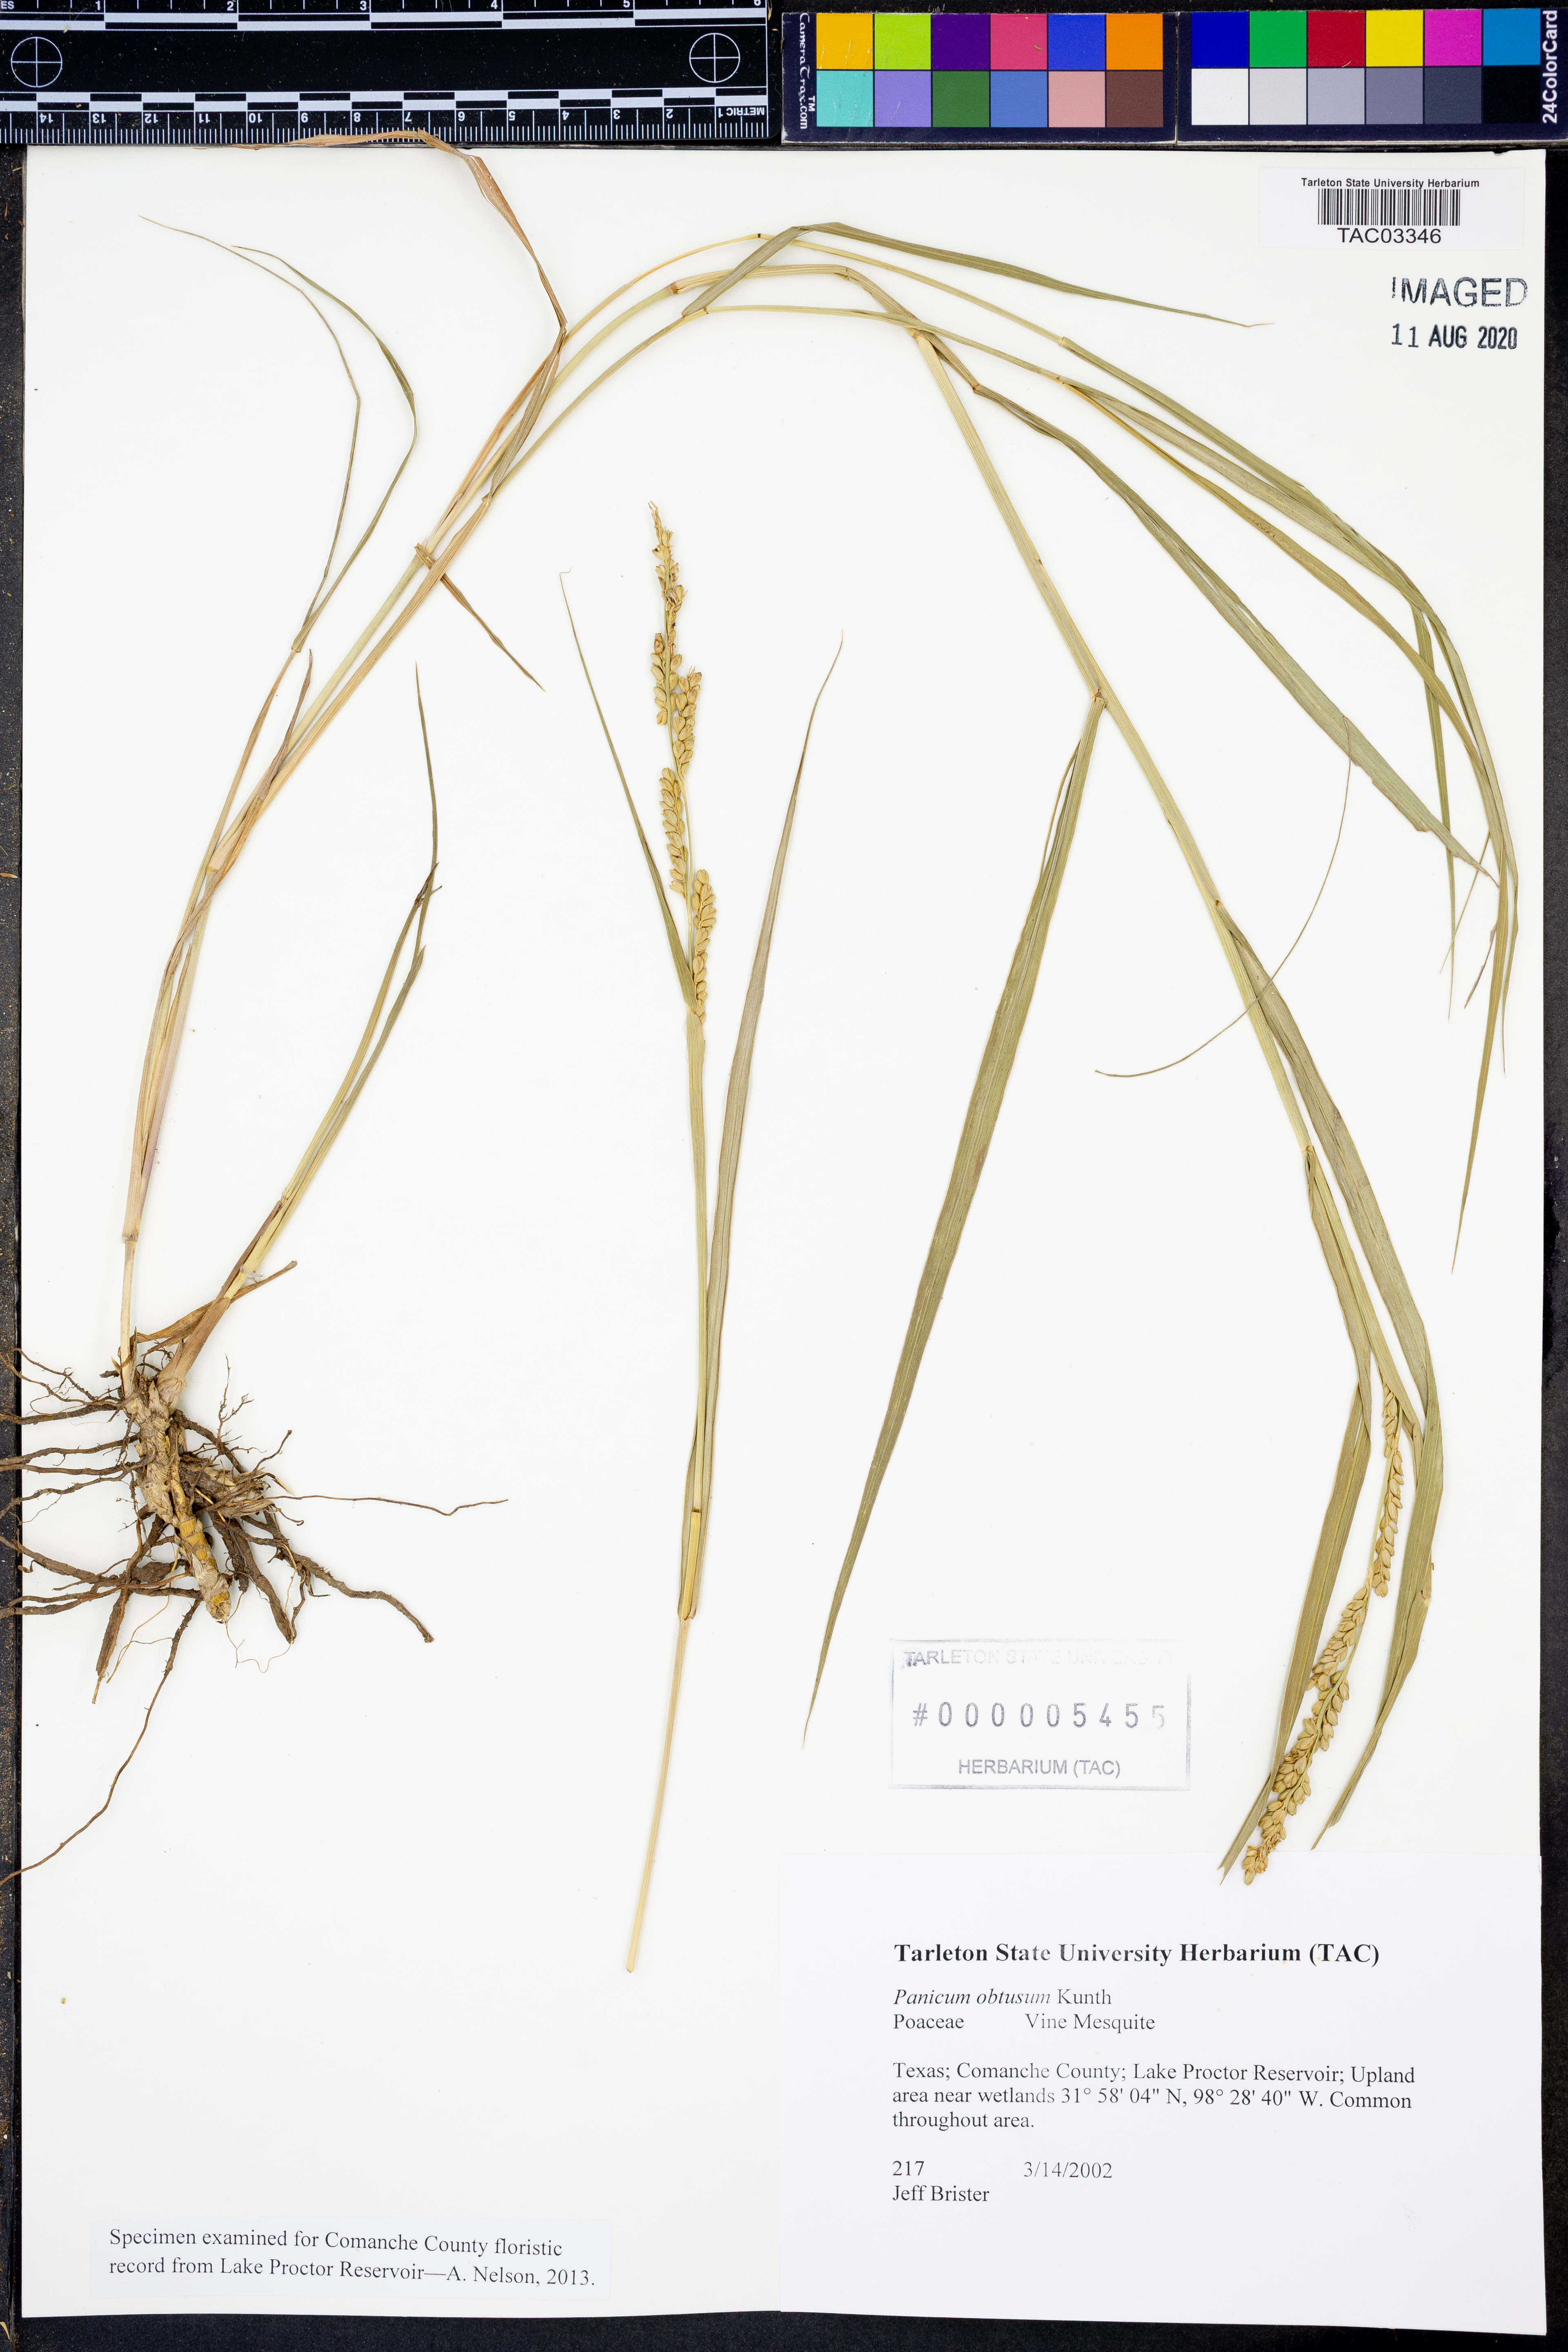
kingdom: Plantae
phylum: Tracheophyta
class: Liliopsida
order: Poales
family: Poaceae
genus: Hopia
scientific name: Hopia obtusa
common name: Vine-mesquite
